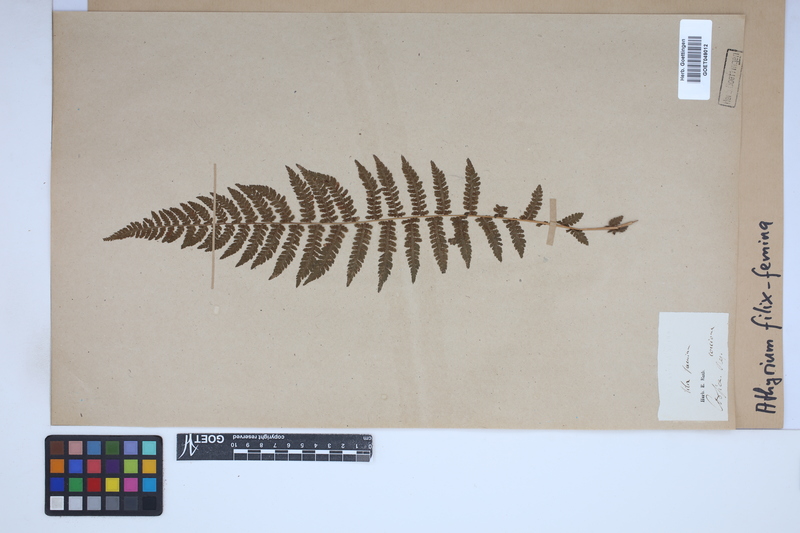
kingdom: Plantae
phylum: Tracheophyta
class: Polypodiopsida
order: Polypodiales
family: Athyriaceae
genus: Athyrium
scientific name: Athyrium filix-femina
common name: Lady fern
